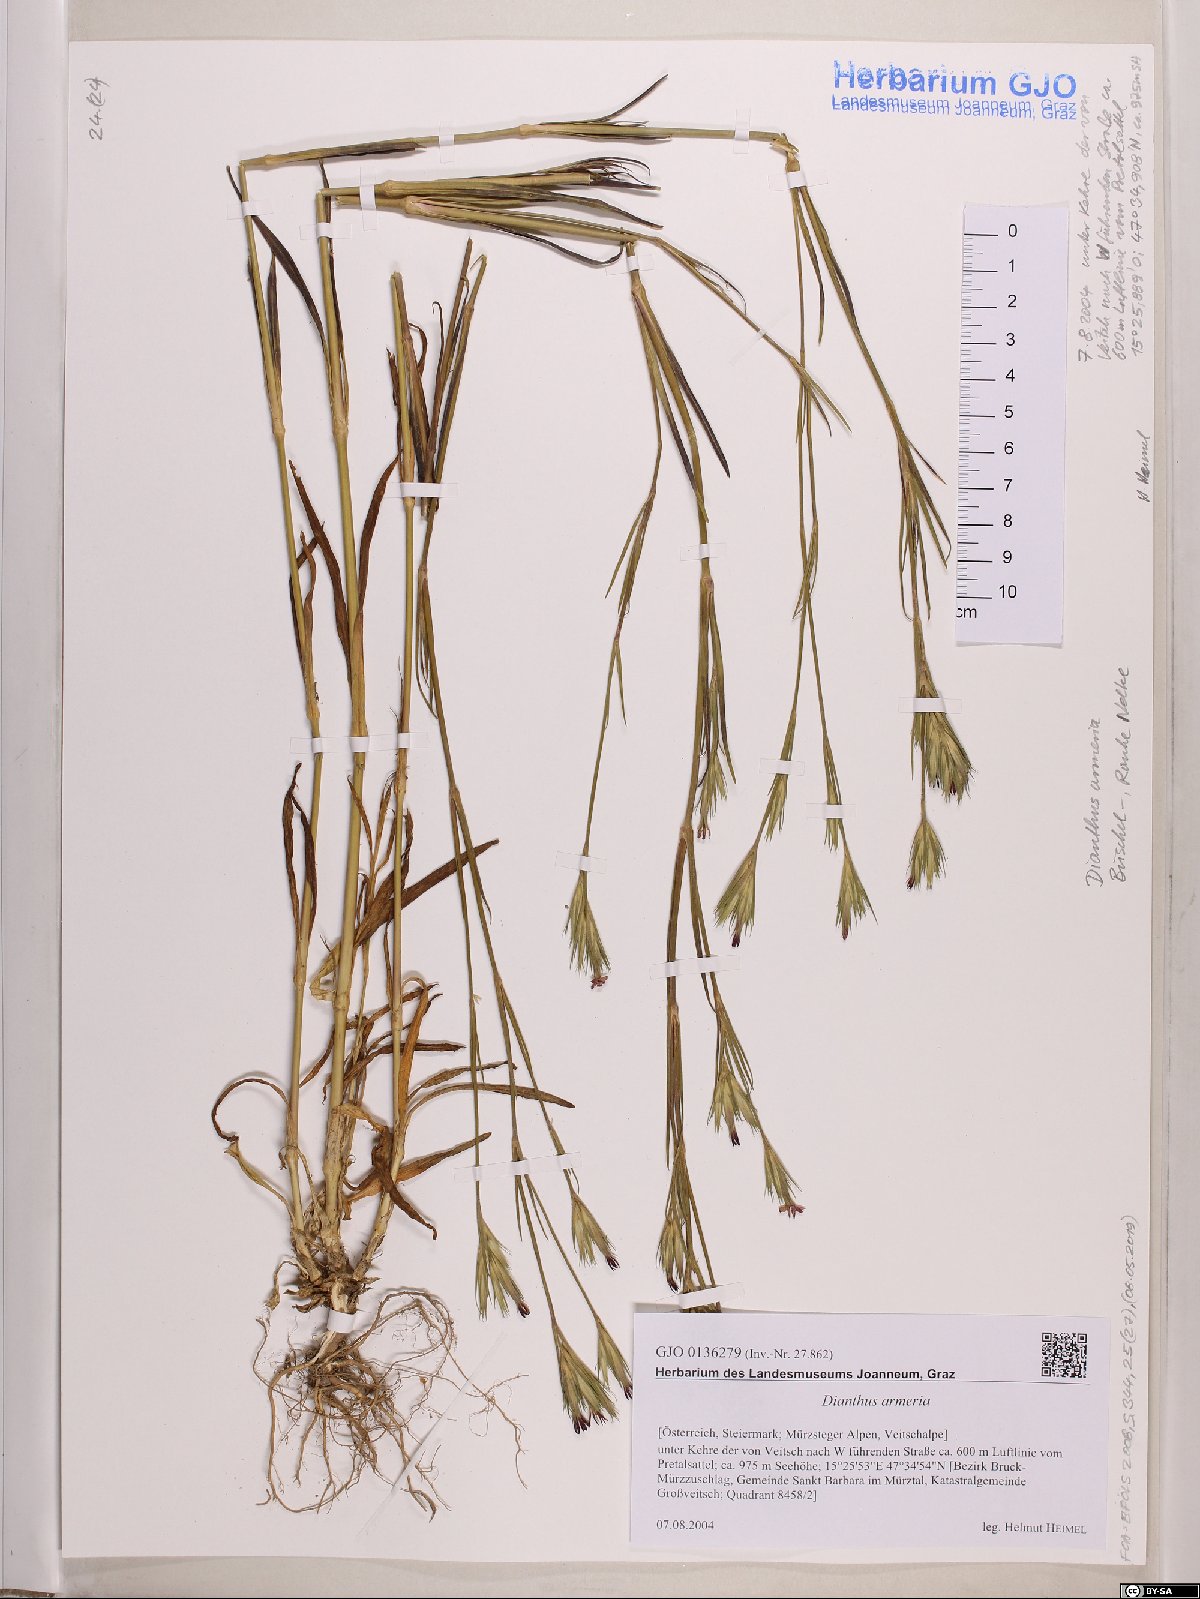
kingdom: Plantae
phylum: Tracheophyta
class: Magnoliopsida
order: Caryophyllales
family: Caryophyllaceae
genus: Dianthus
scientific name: Dianthus armeria
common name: Deptford pink
